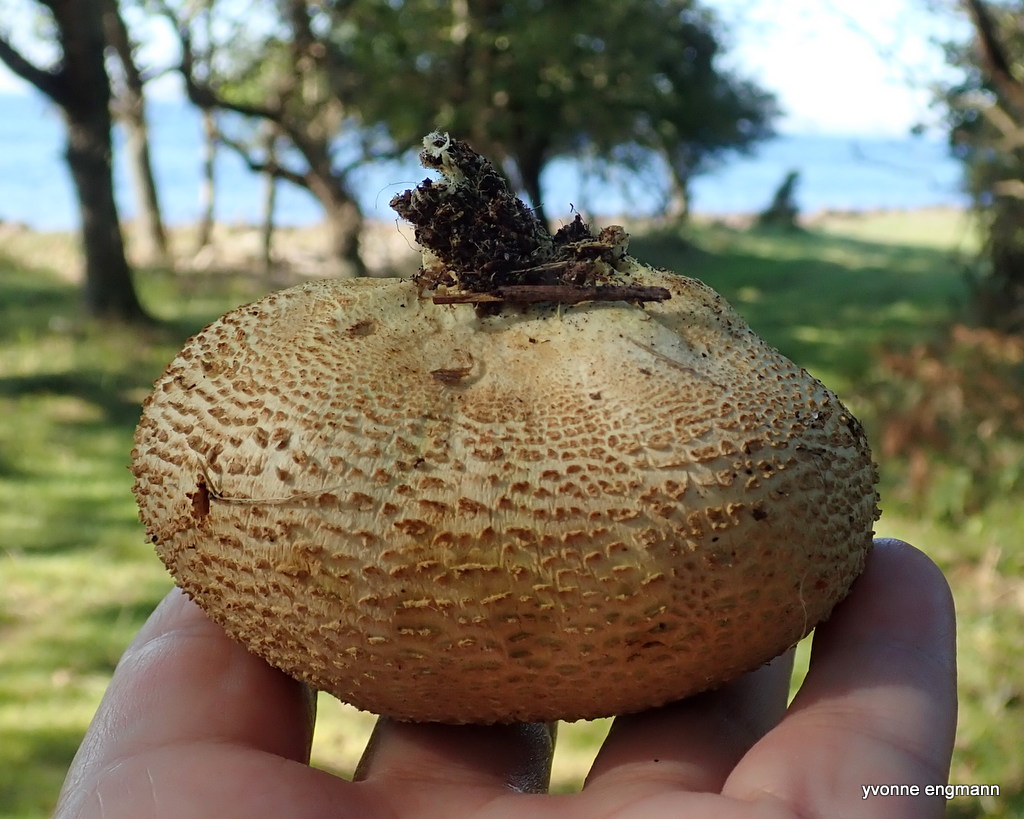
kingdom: Fungi
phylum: Basidiomycota
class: Agaricomycetes
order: Boletales
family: Sclerodermataceae
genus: Scleroderma
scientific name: Scleroderma citrinum
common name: almindelig bruskbold
